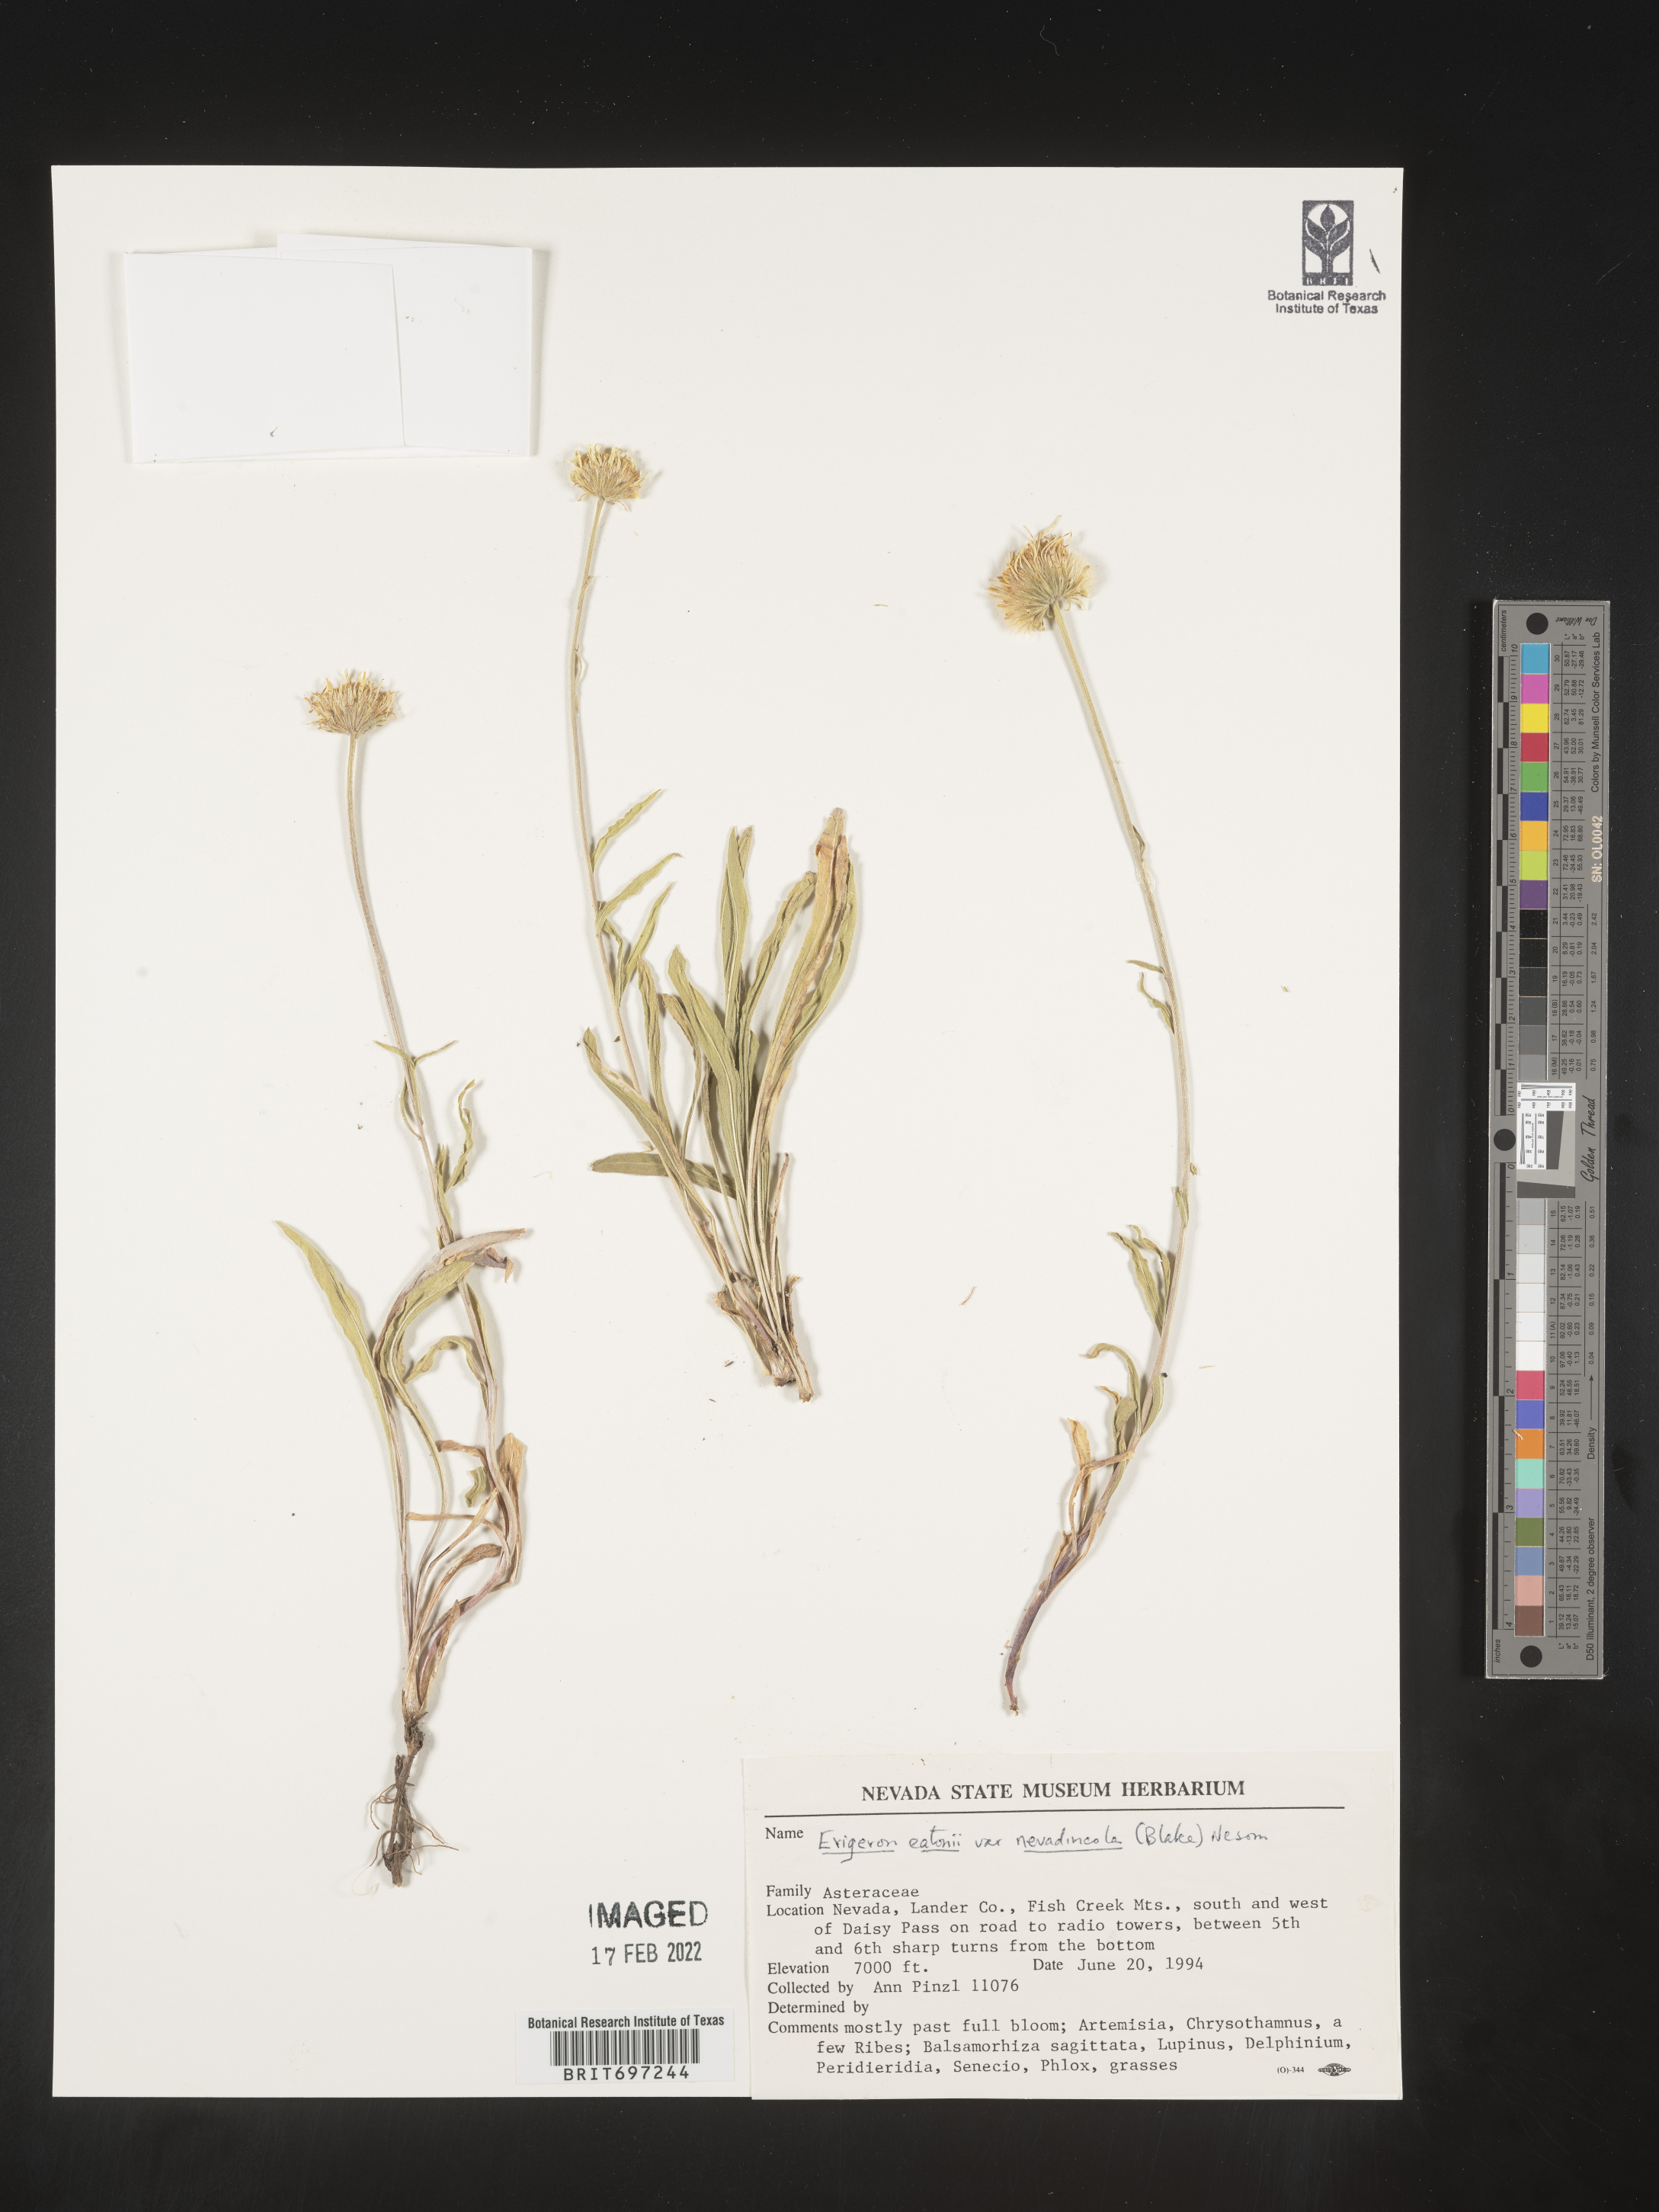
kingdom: Plantae
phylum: Tracheophyta
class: Magnoliopsida
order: Asterales
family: Asteraceae
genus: Erigeron
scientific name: Erigeron eatonii
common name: Eaton's fleabane
